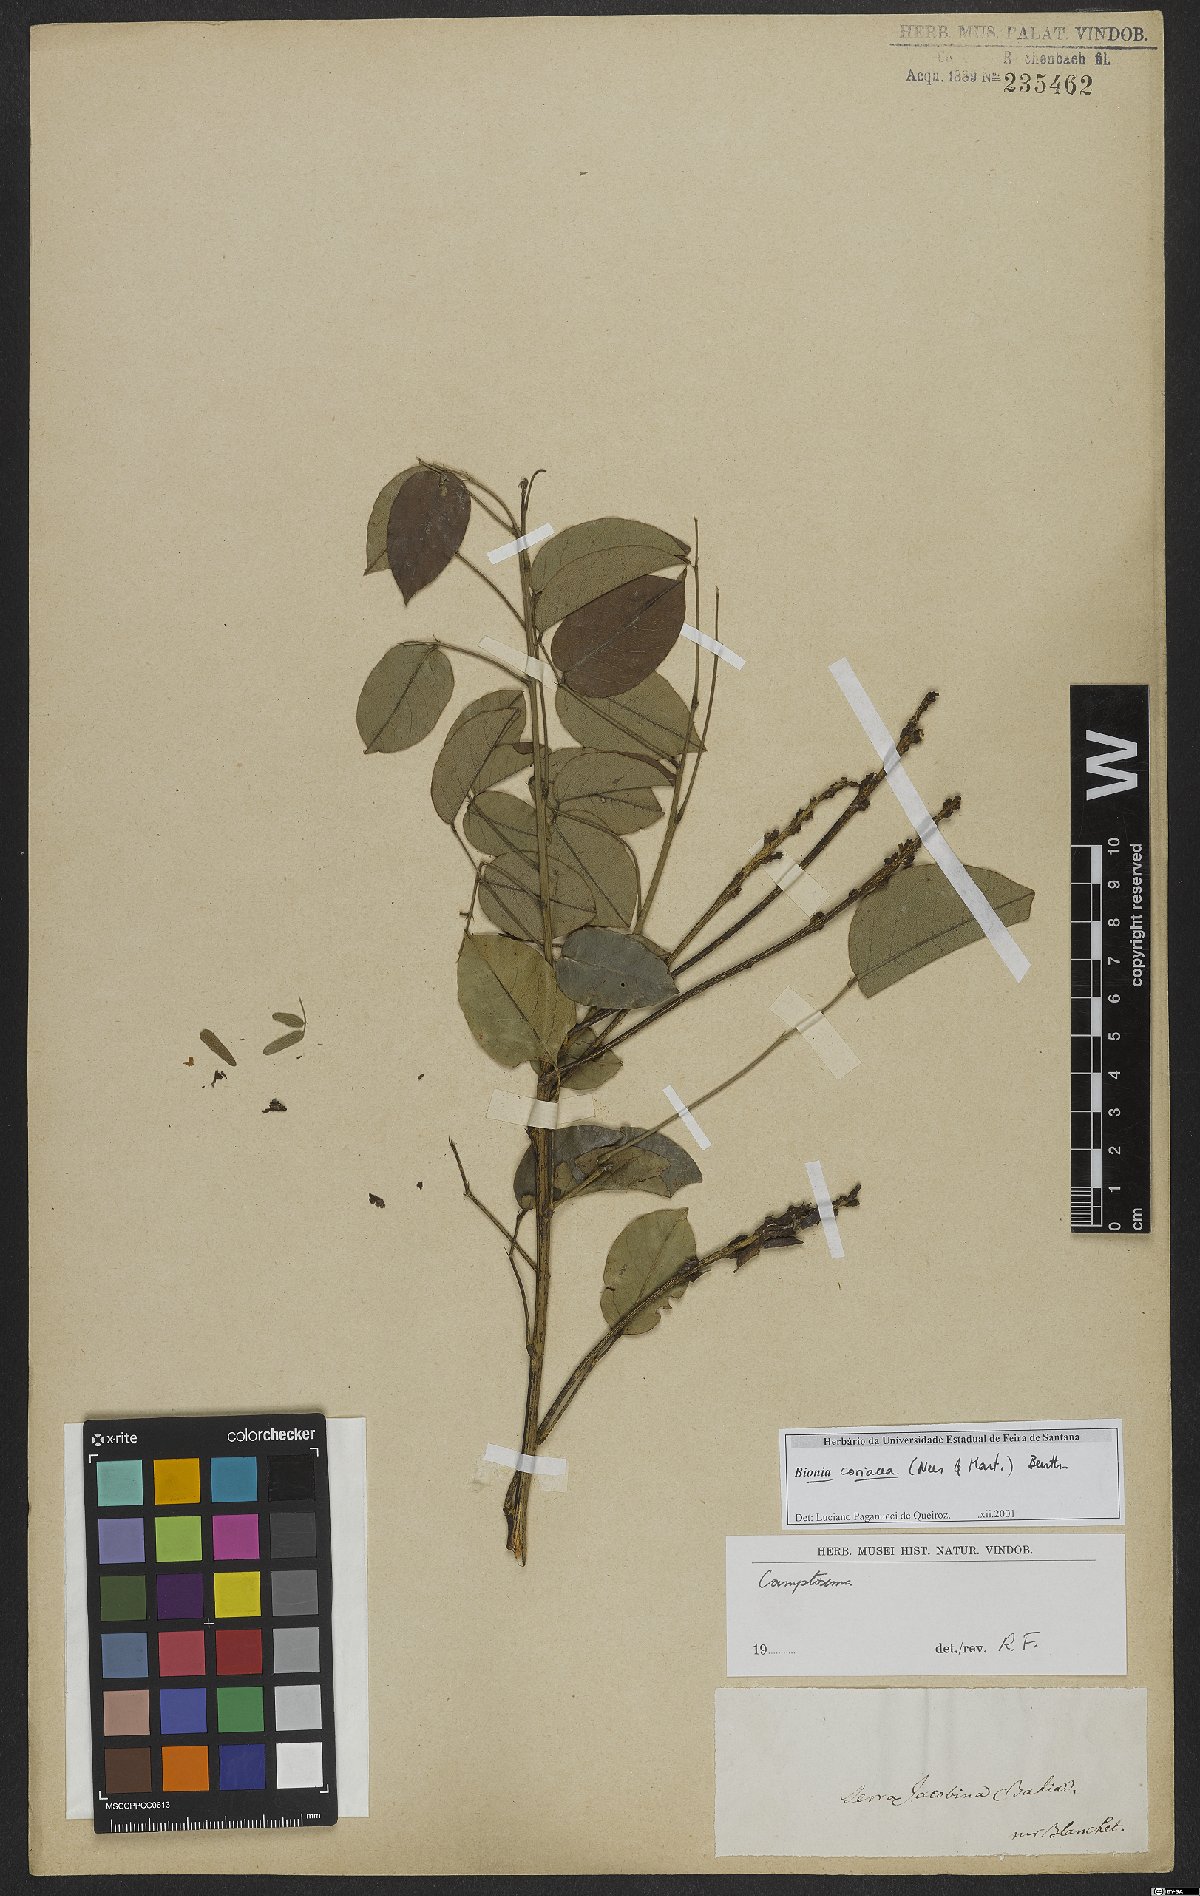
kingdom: Plantae
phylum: Tracheophyta
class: Magnoliopsida
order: Fabales
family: Fabaceae
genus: Camptosema
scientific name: Camptosema coriaceum
